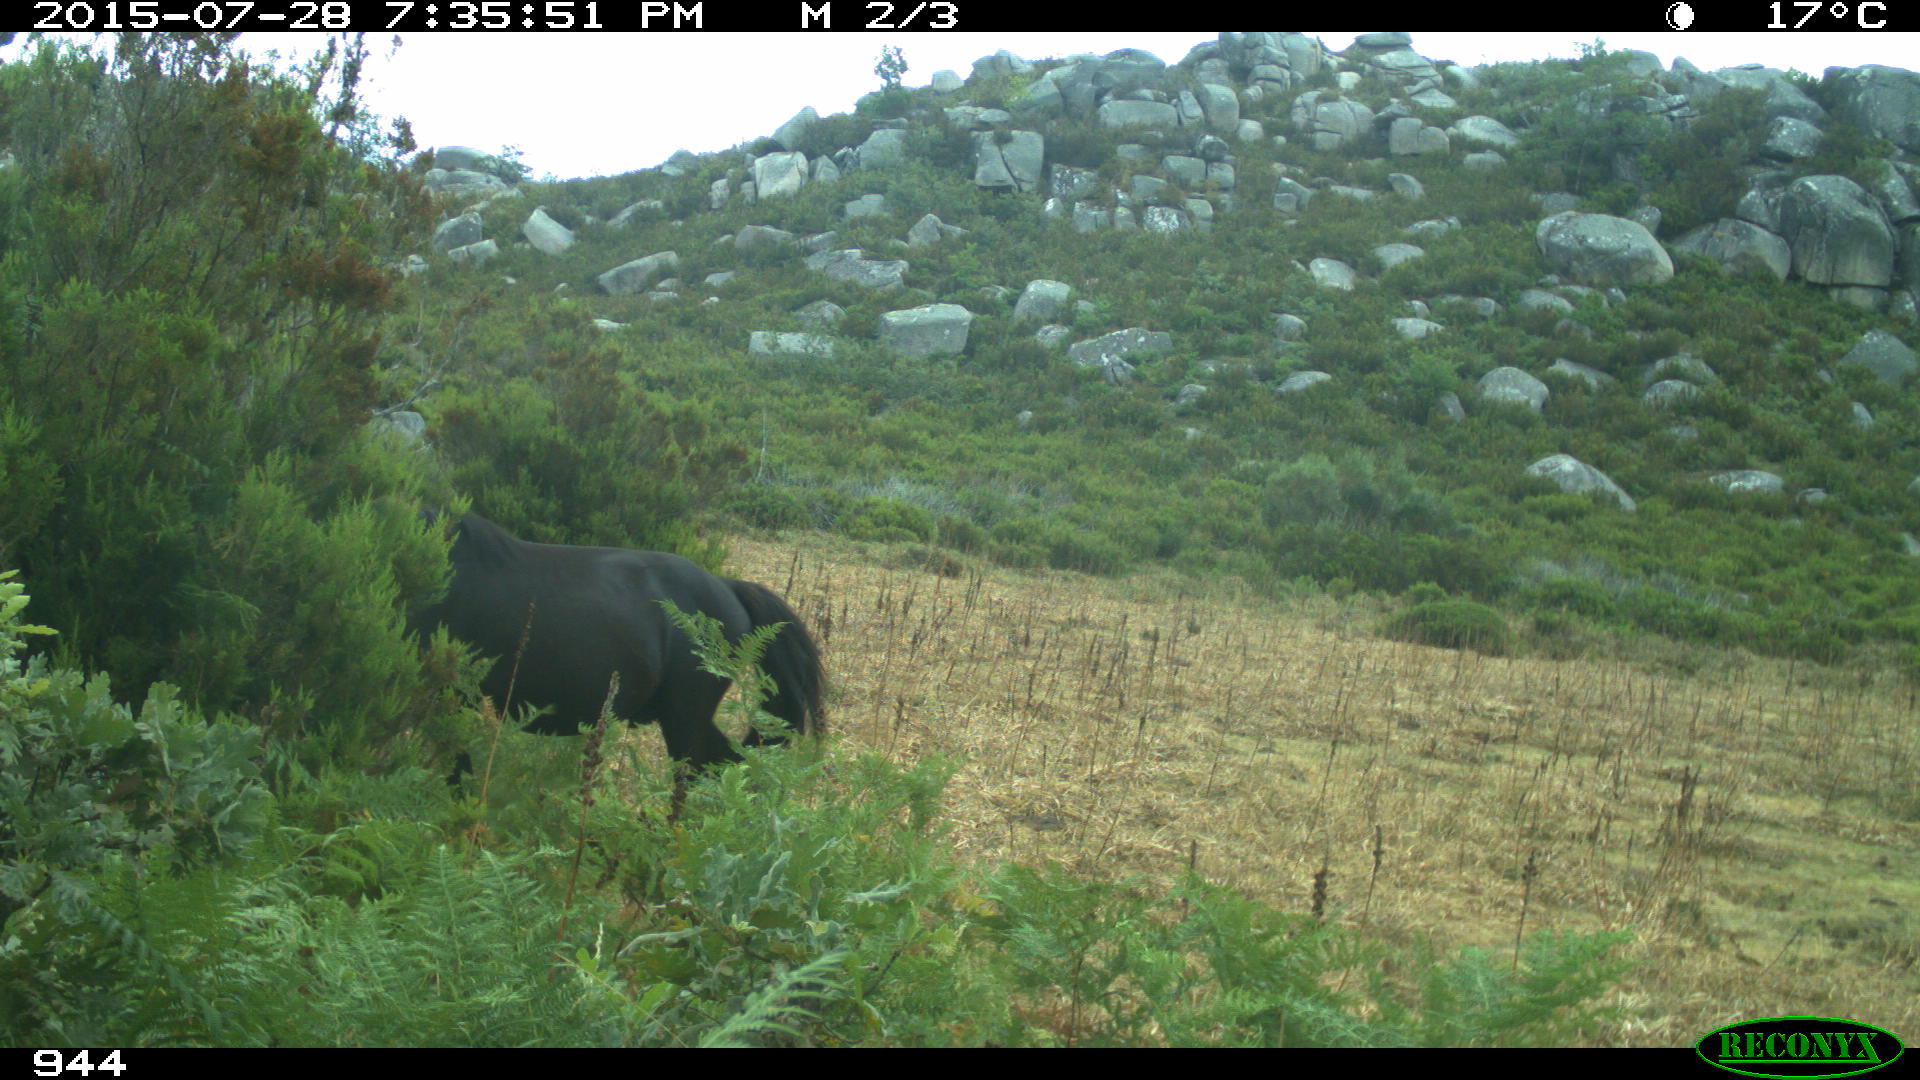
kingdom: Animalia
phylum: Chordata
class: Mammalia
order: Perissodactyla
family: Equidae
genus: Equus
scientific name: Equus caballus
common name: Horse
